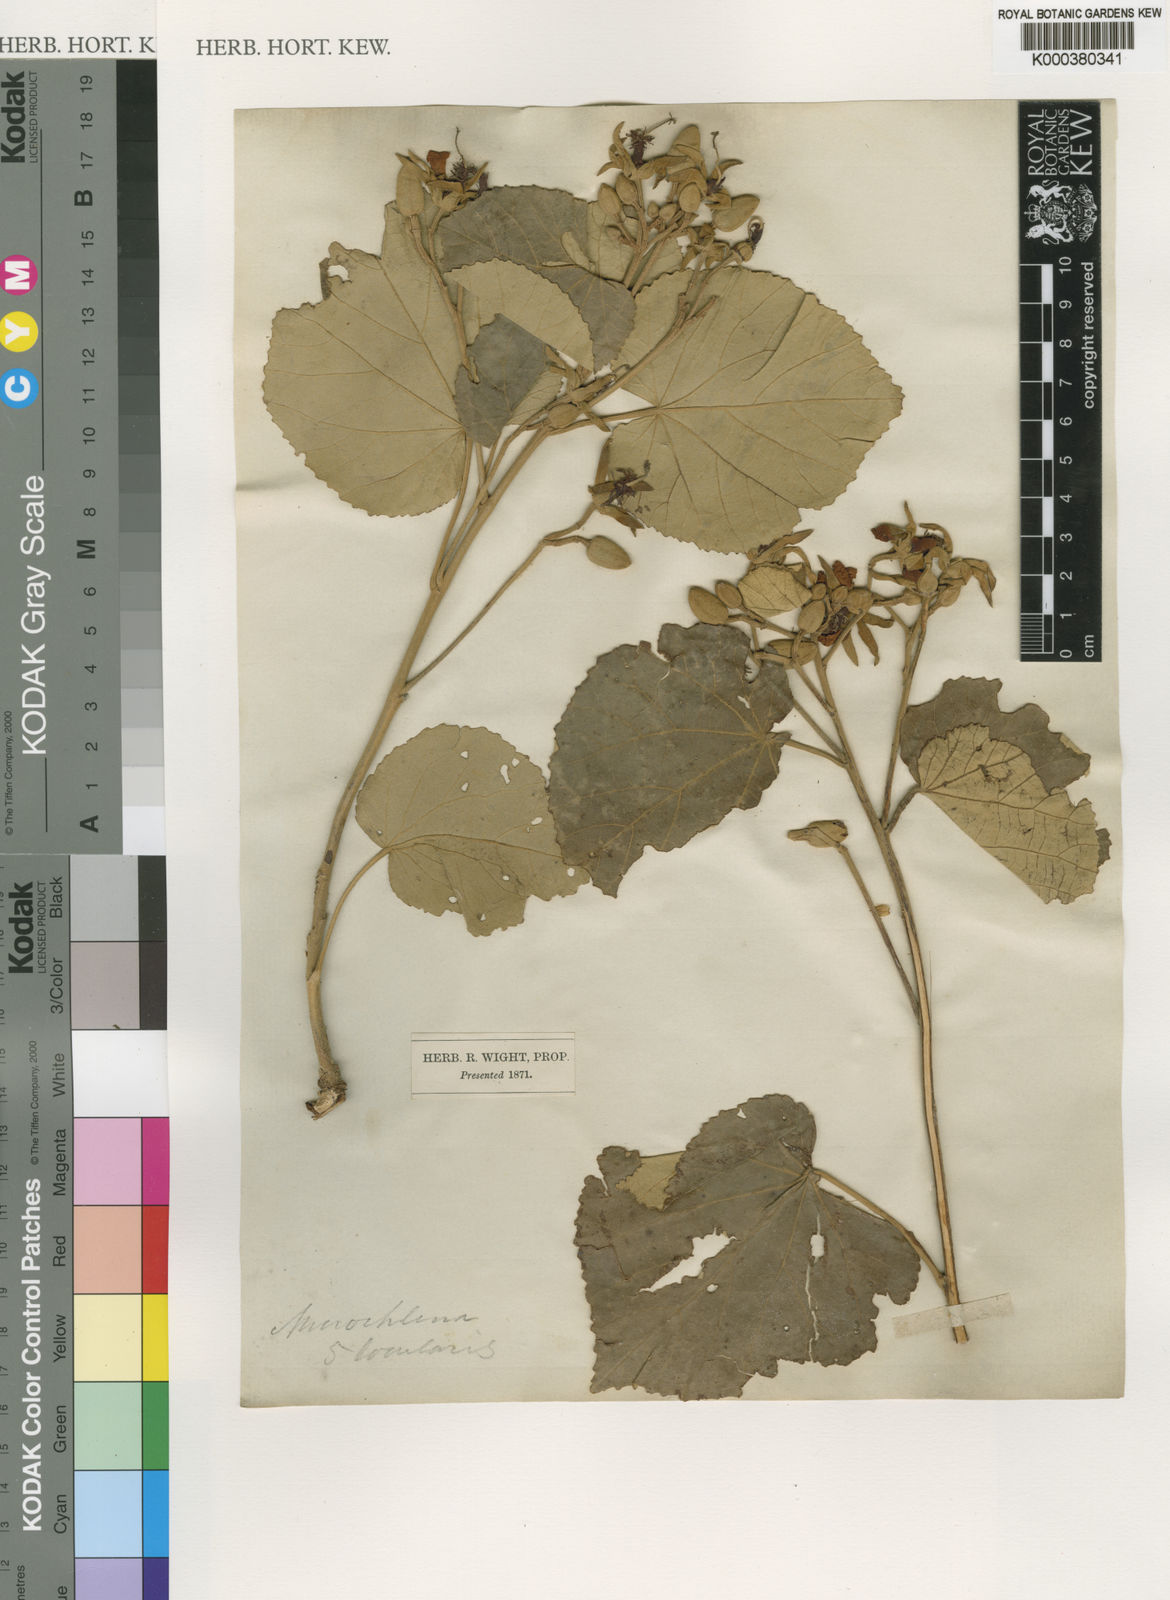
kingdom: Plantae
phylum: Tracheophyta
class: Magnoliopsida
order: Malvales
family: Malvaceae
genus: Eriolaena
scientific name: Eriolaena quinquelocularis
